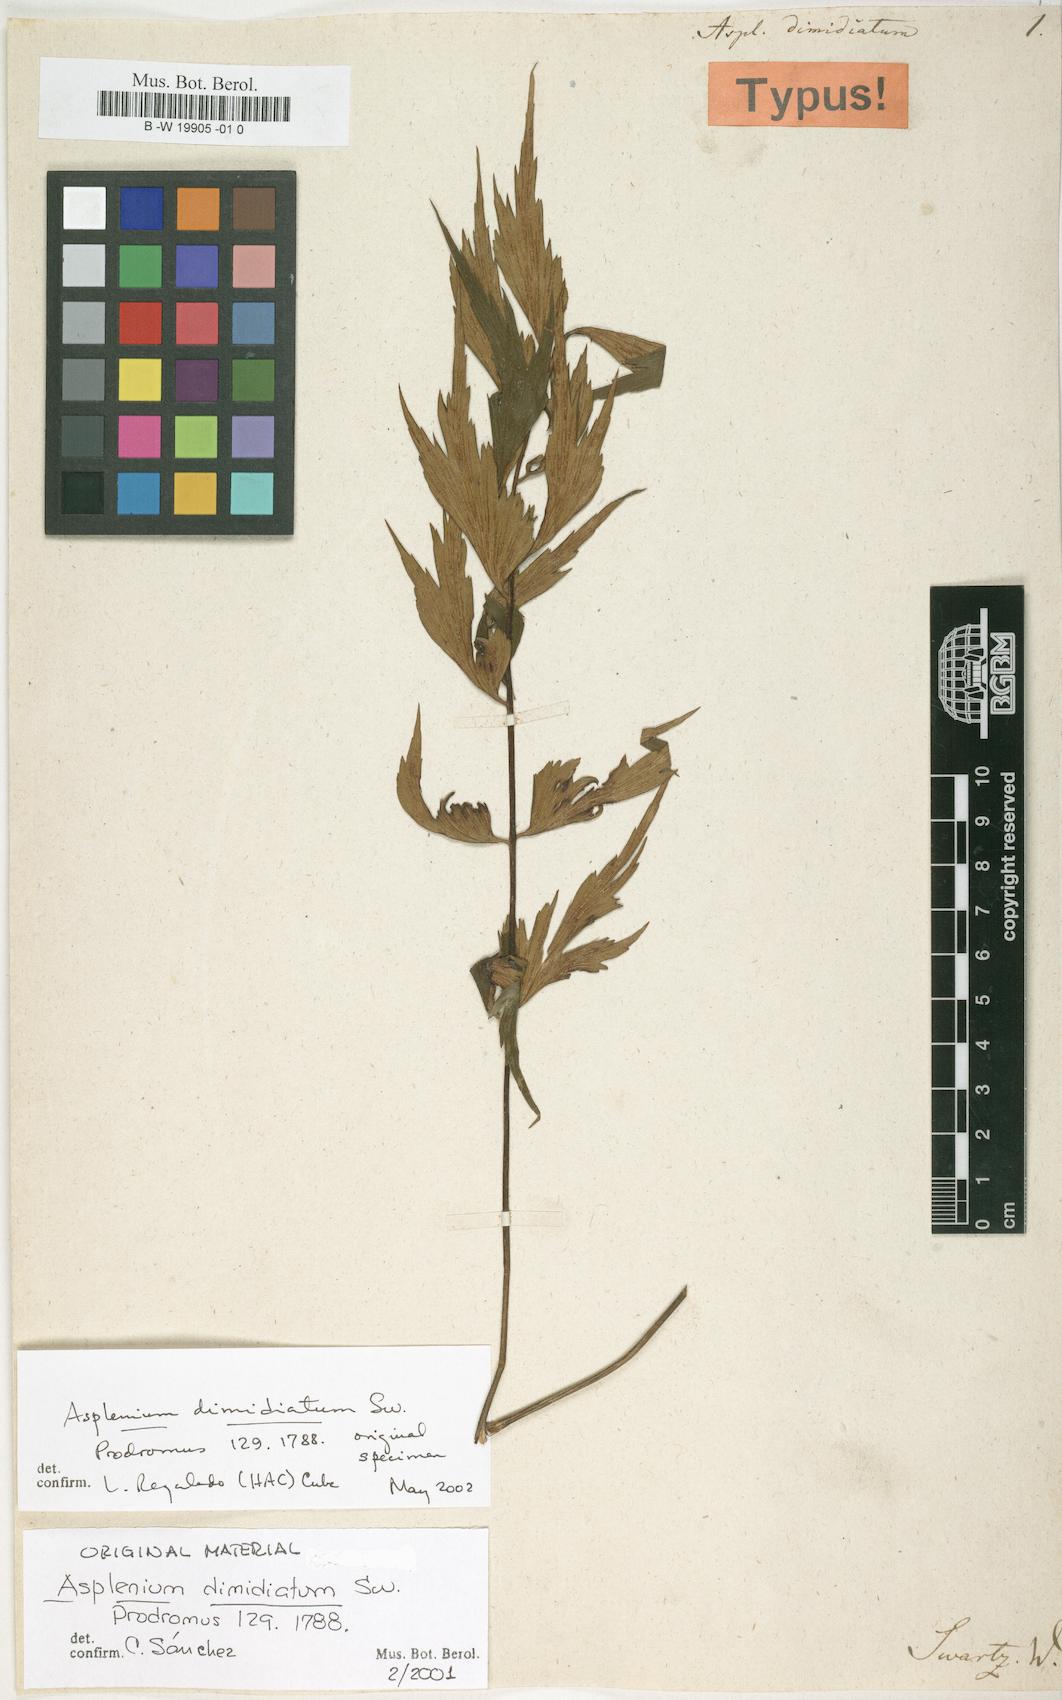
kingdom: Plantae
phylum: Tracheophyta
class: Polypodiopsida
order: Polypodiales
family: Aspleniaceae
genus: Asplenium
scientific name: Asplenium dimidiatum
